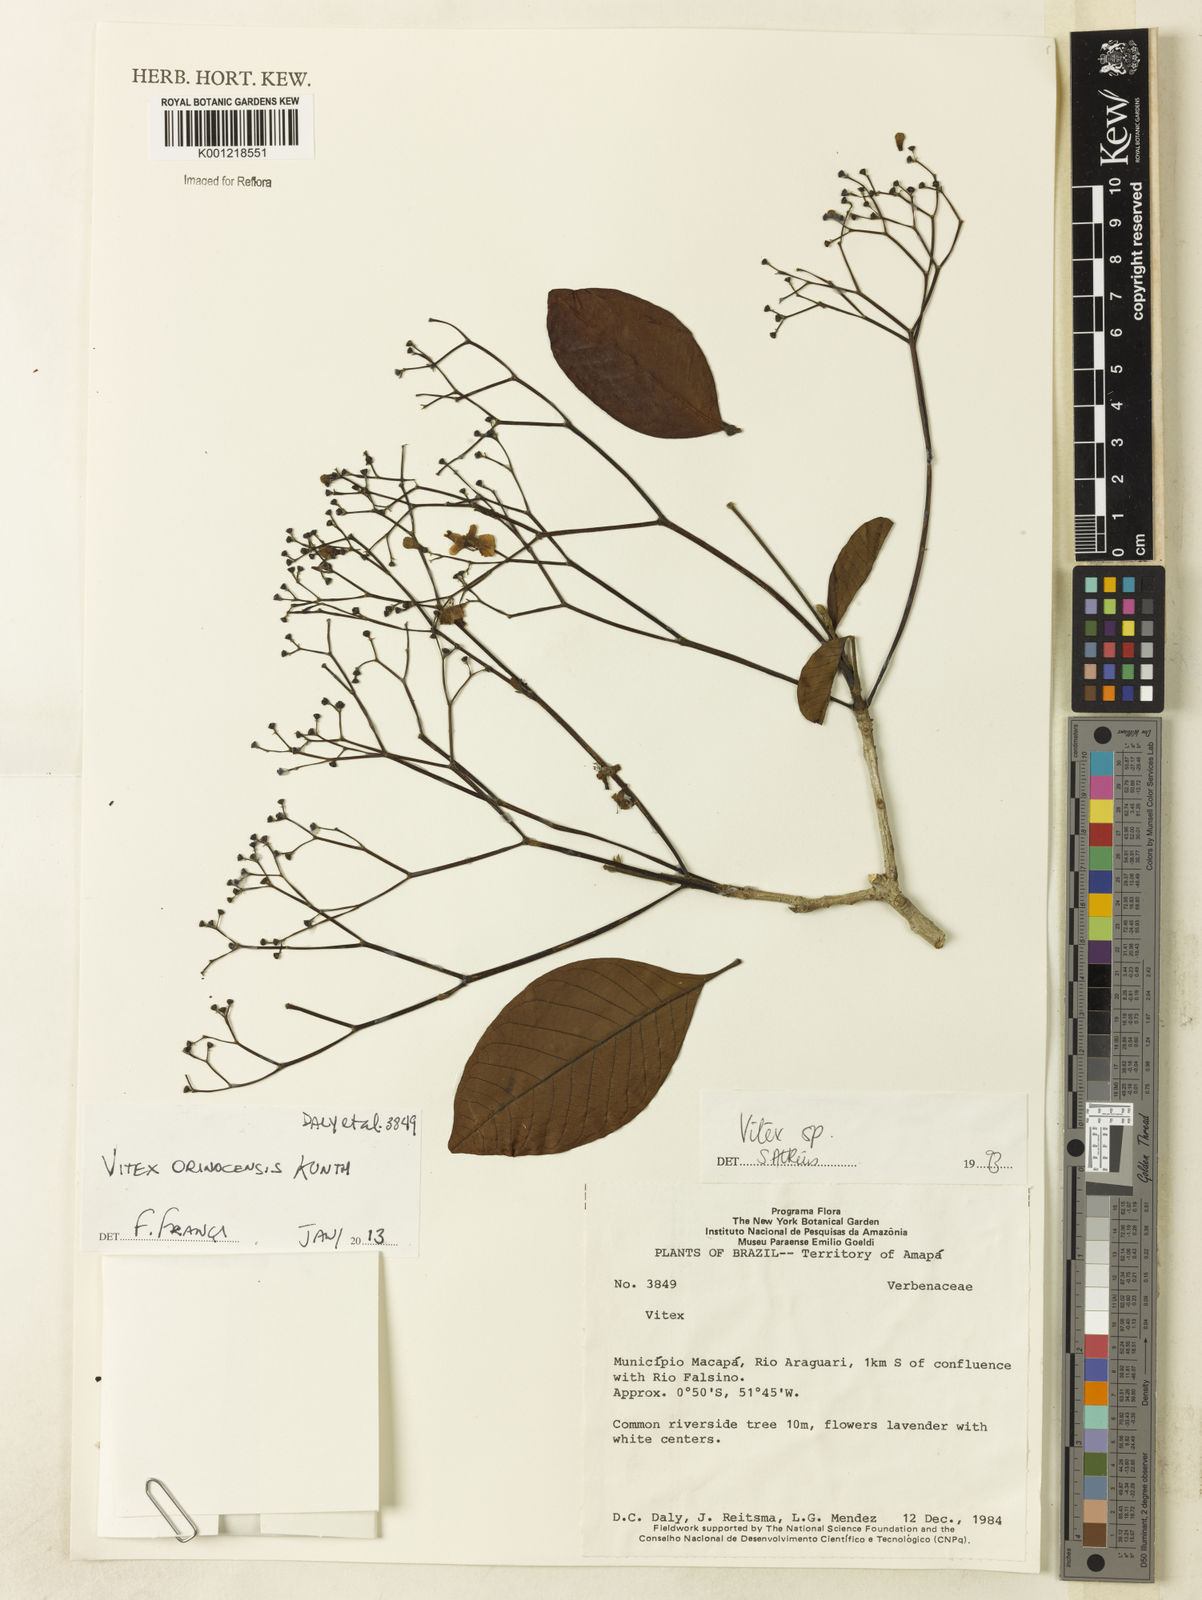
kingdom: Plantae
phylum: Tracheophyta
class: Magnoliopsida
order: Lamiales
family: Lamiaceae
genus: Vitex
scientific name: Vitex orinocensis
